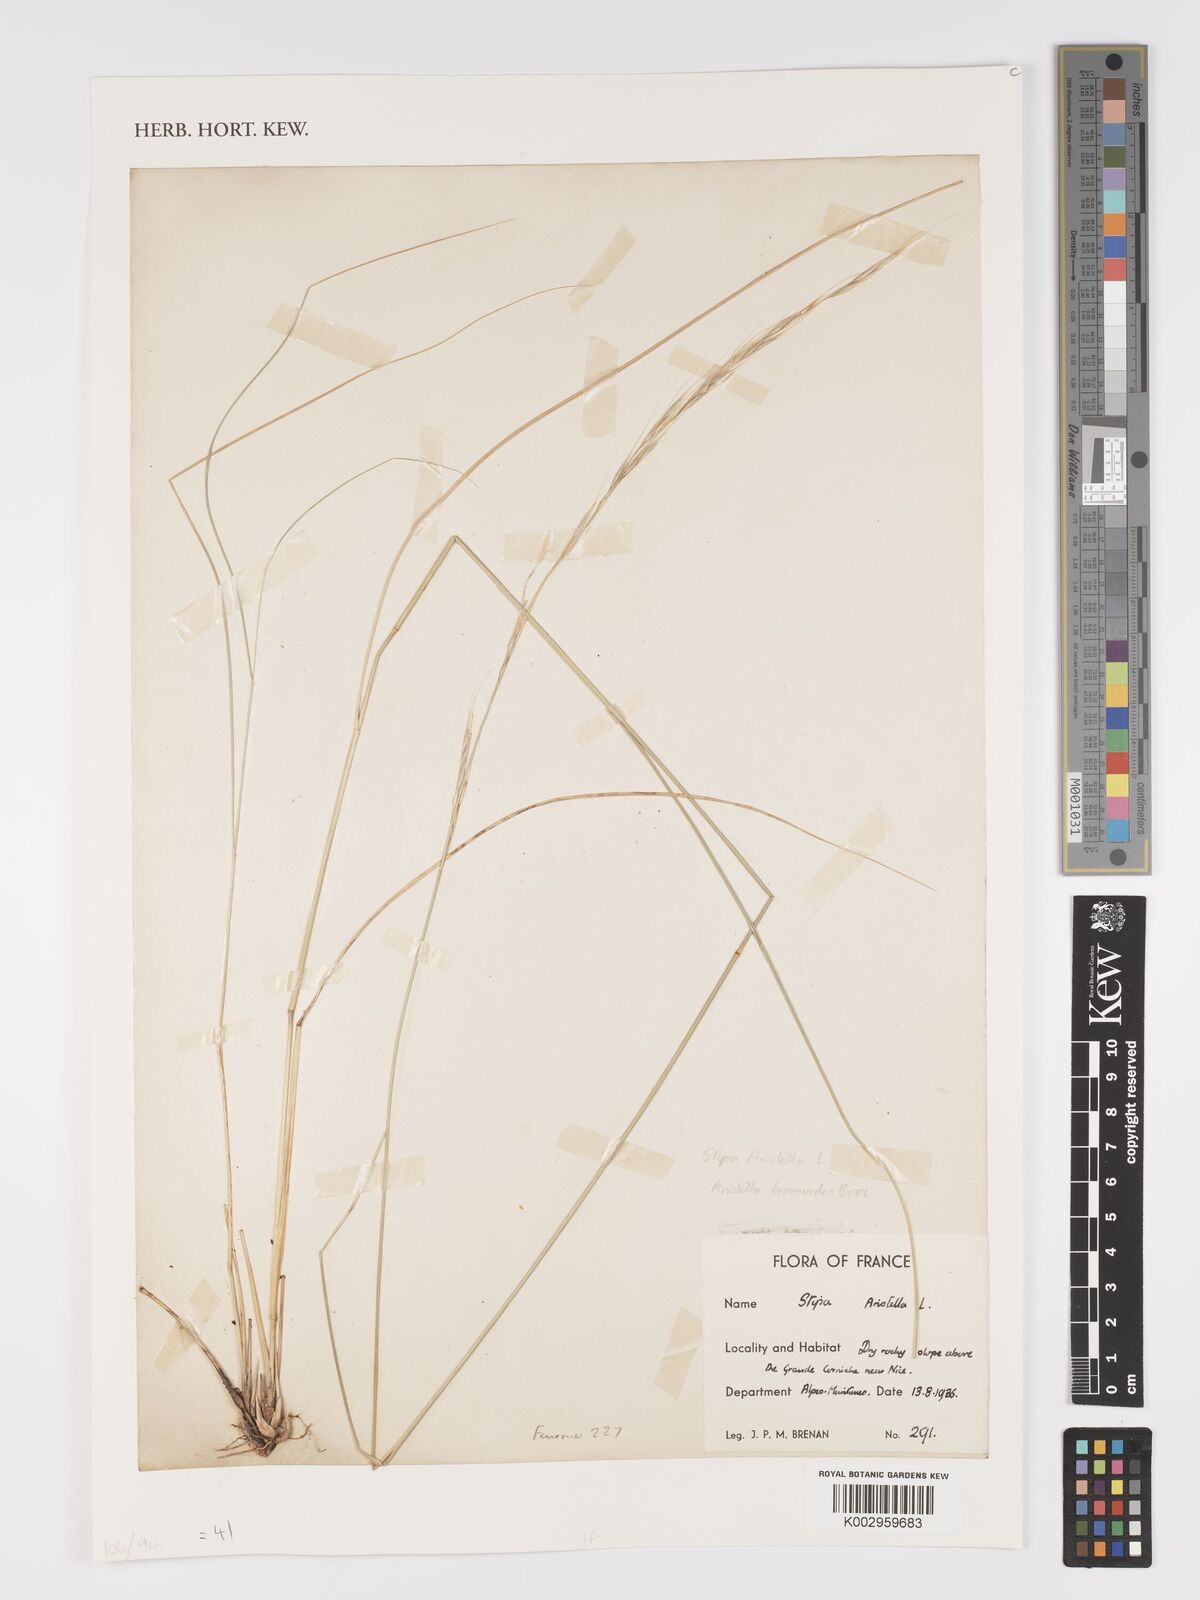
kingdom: Plantae
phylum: Tracheophyta
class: Liliopsida
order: Poales
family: Poaceae
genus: Achnatherum
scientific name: Achnatherum bromoides
